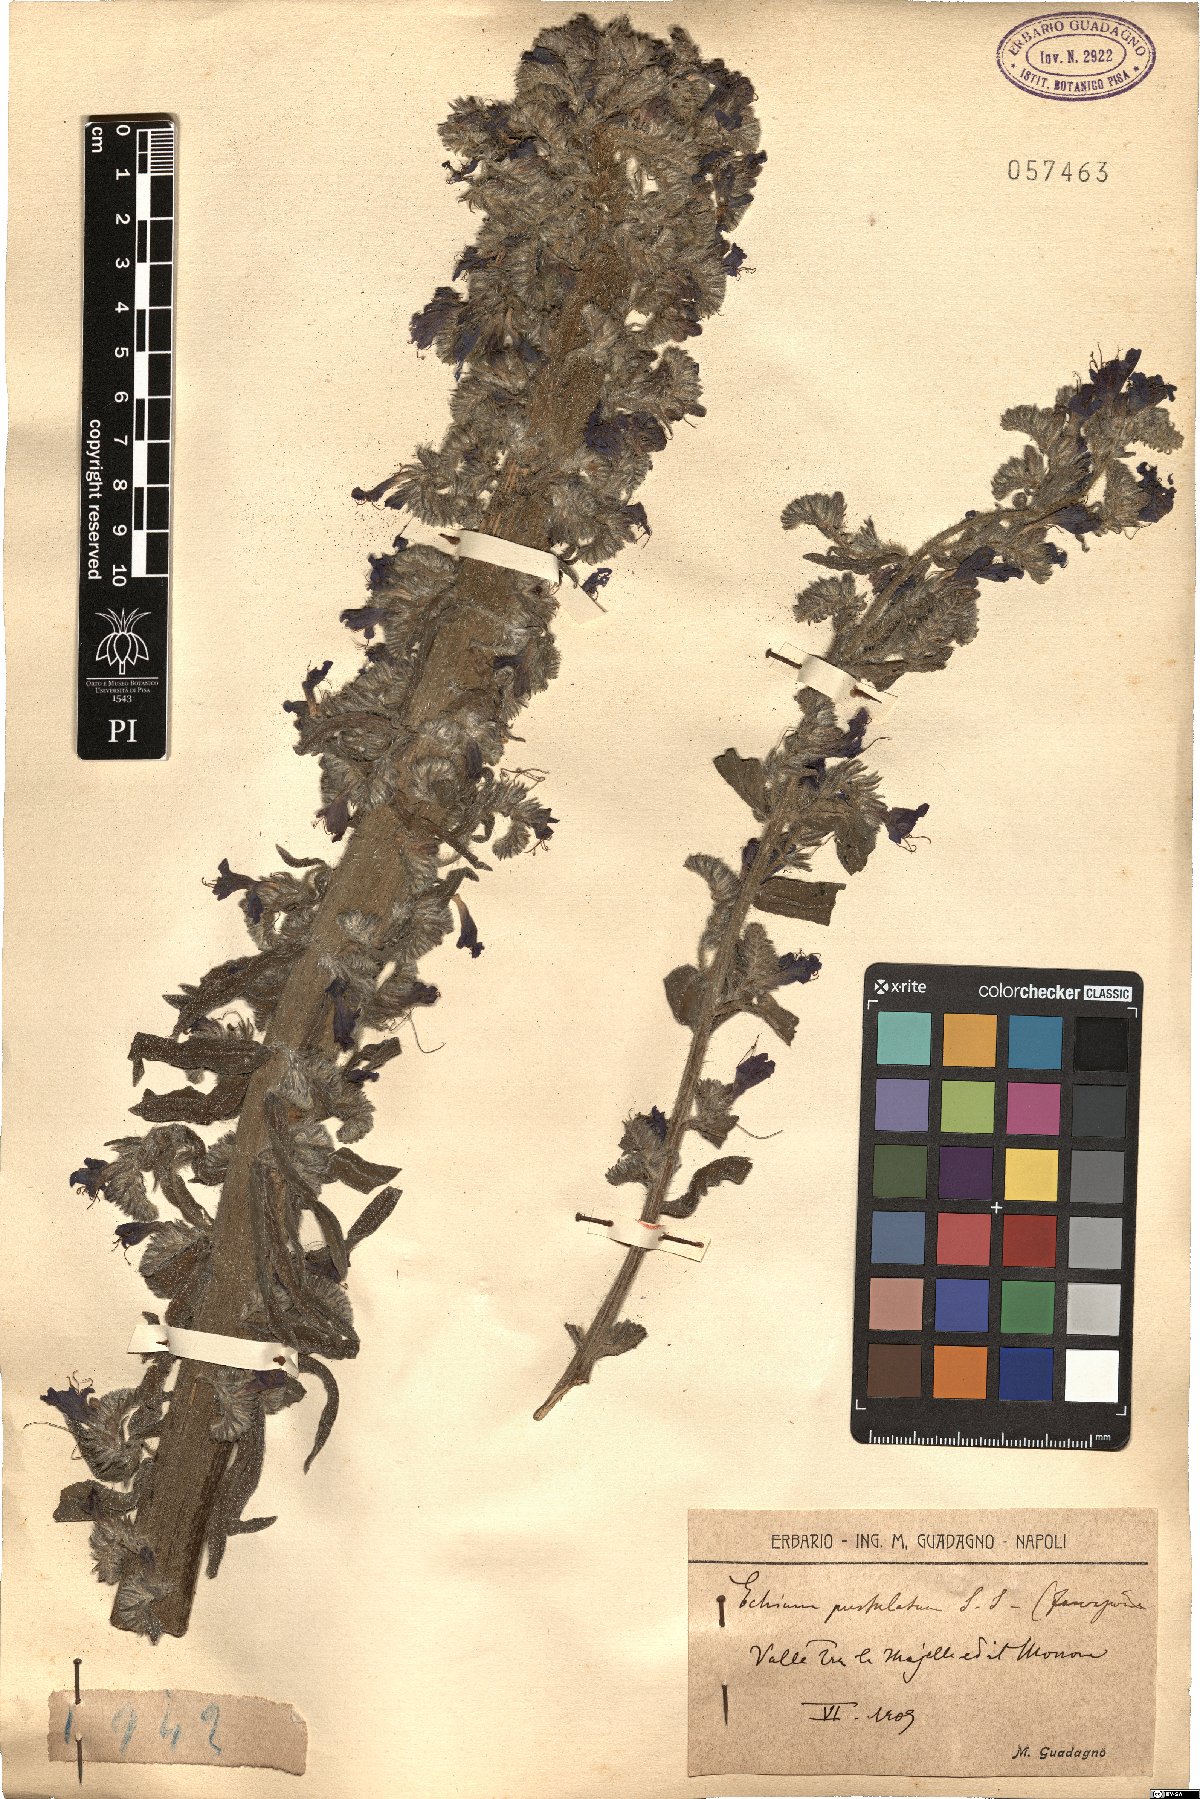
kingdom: Plantae
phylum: Tracheophyta
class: Magnoliopsida
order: Boraginales
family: Boraginaceae
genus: Echium
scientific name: Echium vulgare
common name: Common viper's bugloss
